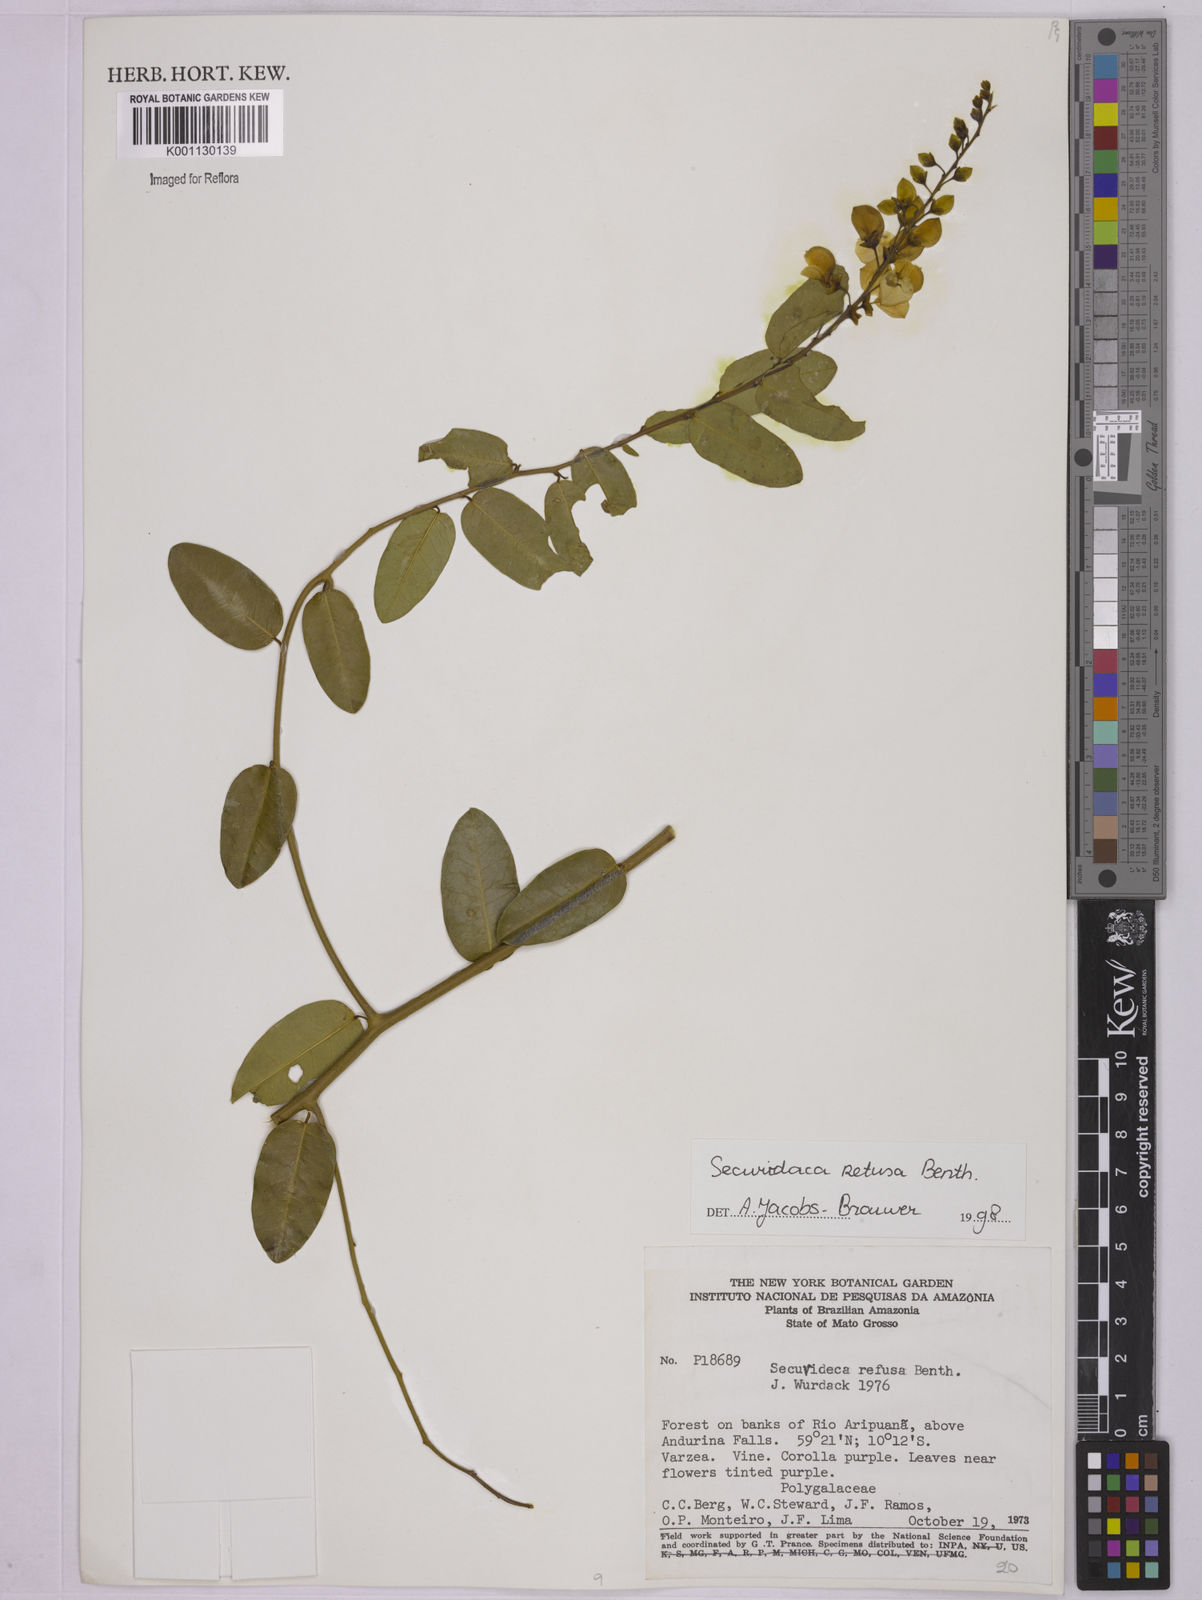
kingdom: Plantae
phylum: Tracheophyta
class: Magnoliopsida
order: Fabales
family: Polygalaceae
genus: Securidaca
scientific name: Securidaca retusa
